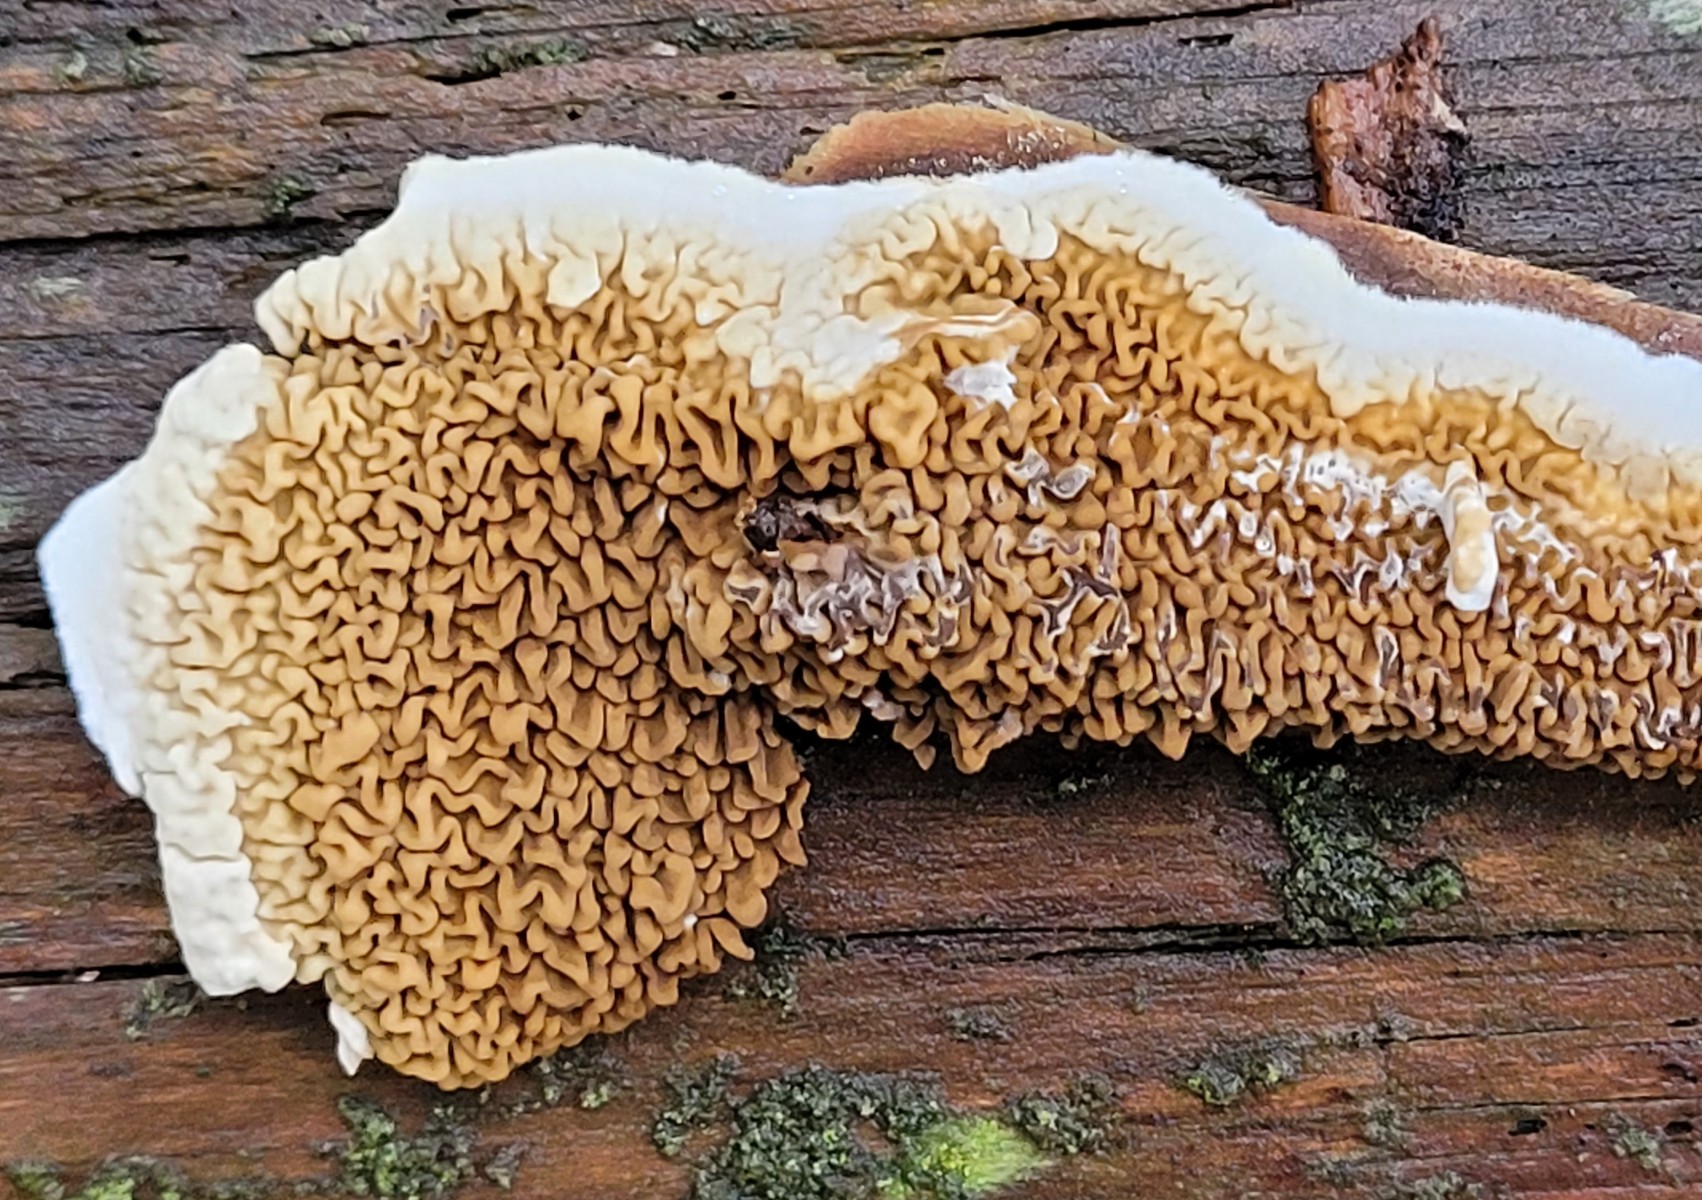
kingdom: Fungi
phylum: Basidiomycota
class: Agaricomycetes
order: Boletales
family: Serpulaceae
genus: Serpula
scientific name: Serpula himantioides
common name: tyndkødet hussvamp
